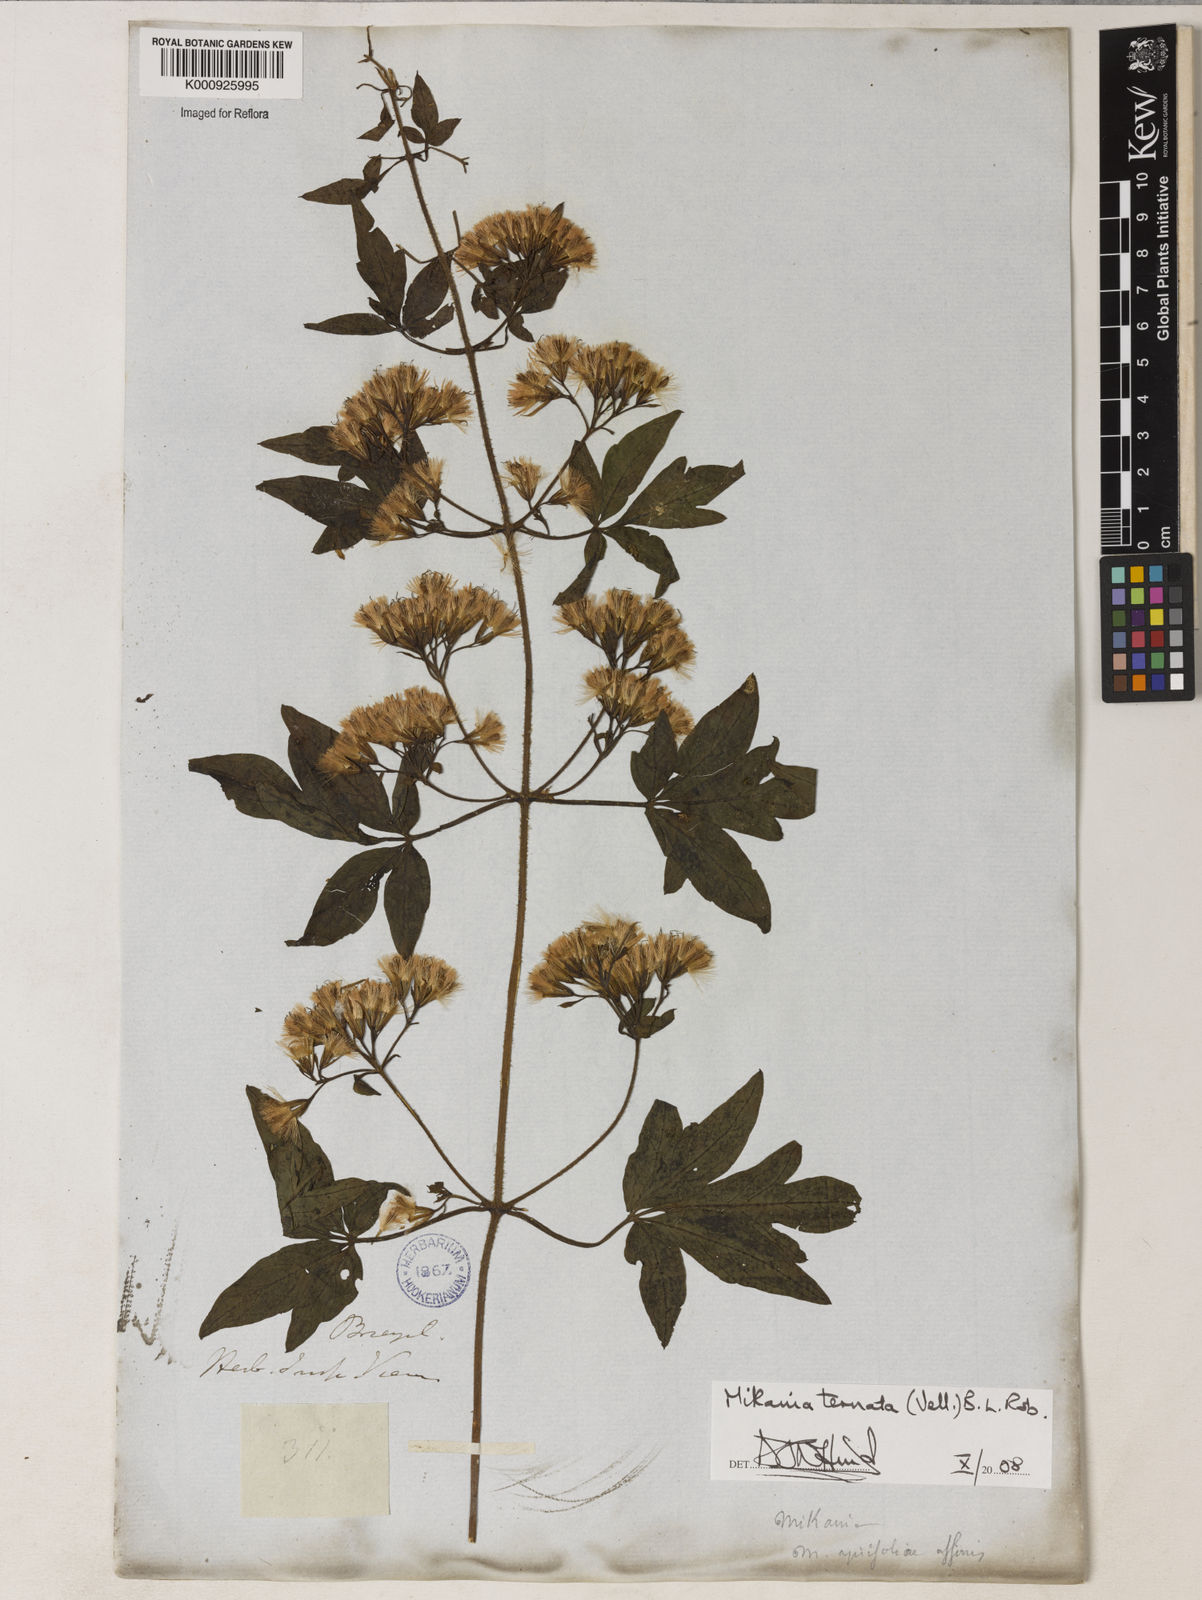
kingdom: Plantae
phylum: Tracheophyta
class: Magnoliopsida
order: Asterales
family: Asteraceae
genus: Mikania
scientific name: Mikania ternata
